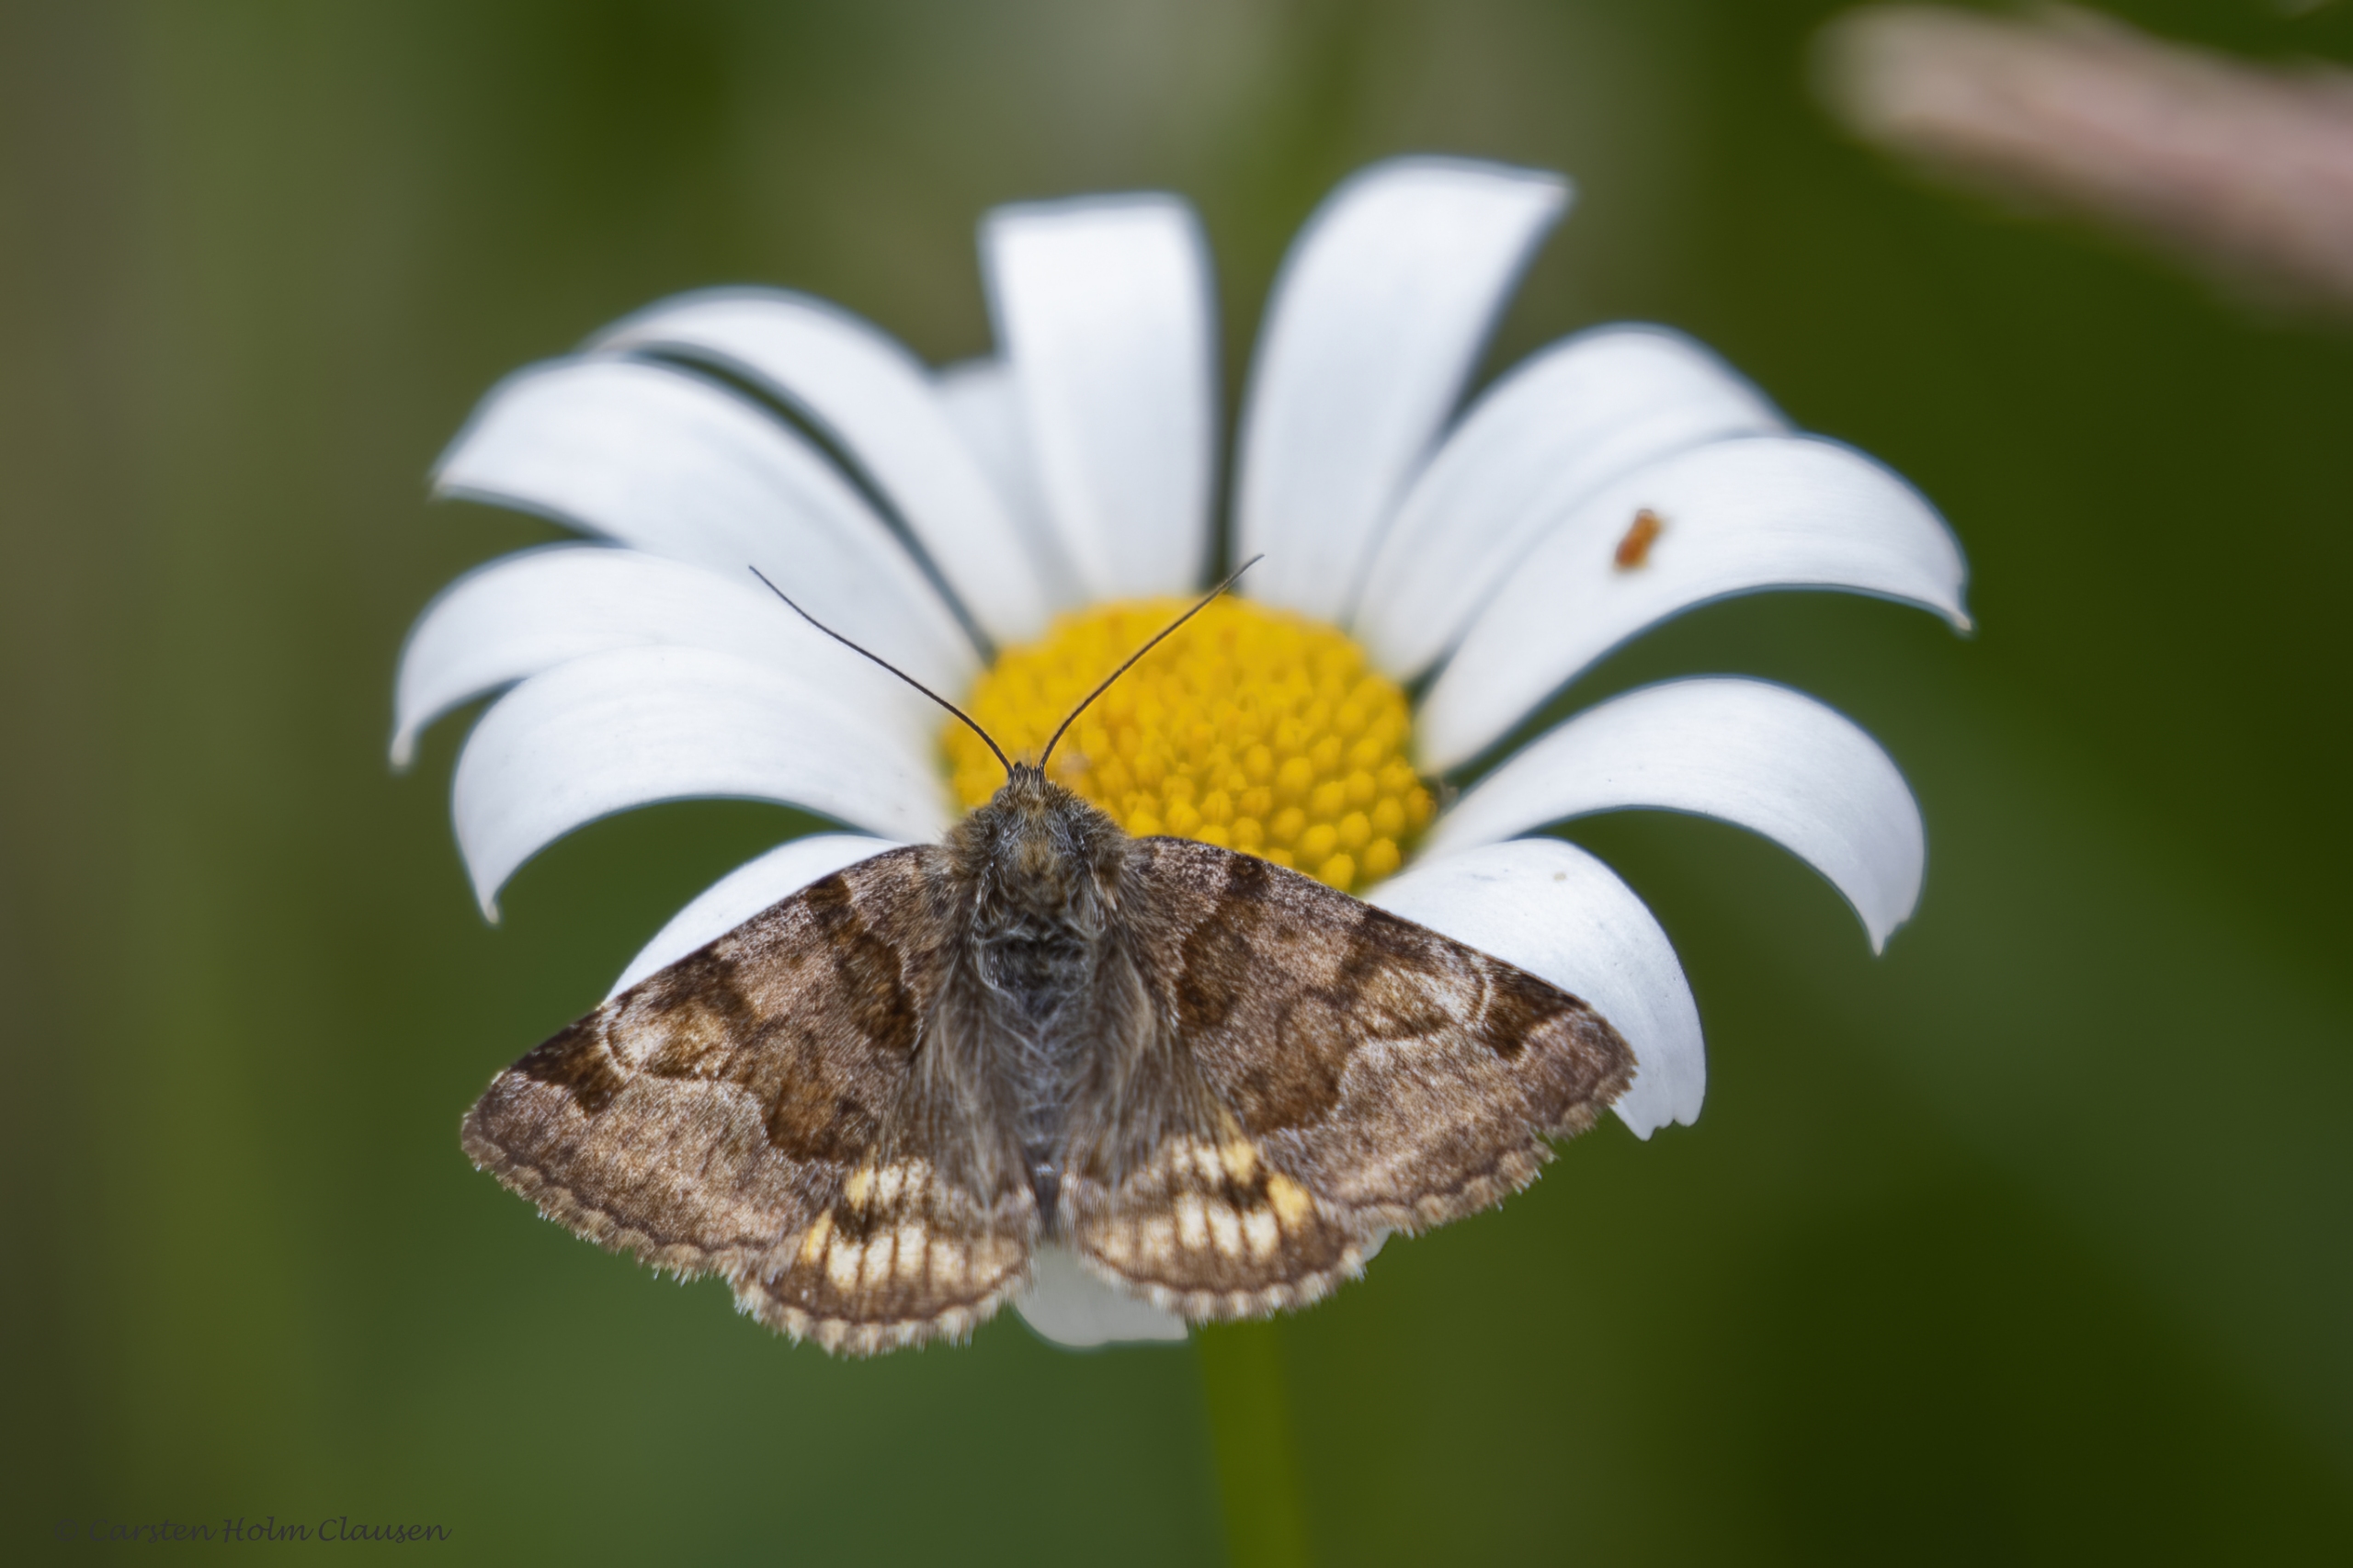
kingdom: Animalia
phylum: Arthropoda
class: Insecta
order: Lepidoptera
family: Erebidae
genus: Euclidia
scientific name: Euclidia glyphica
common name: Brun kløverugle
